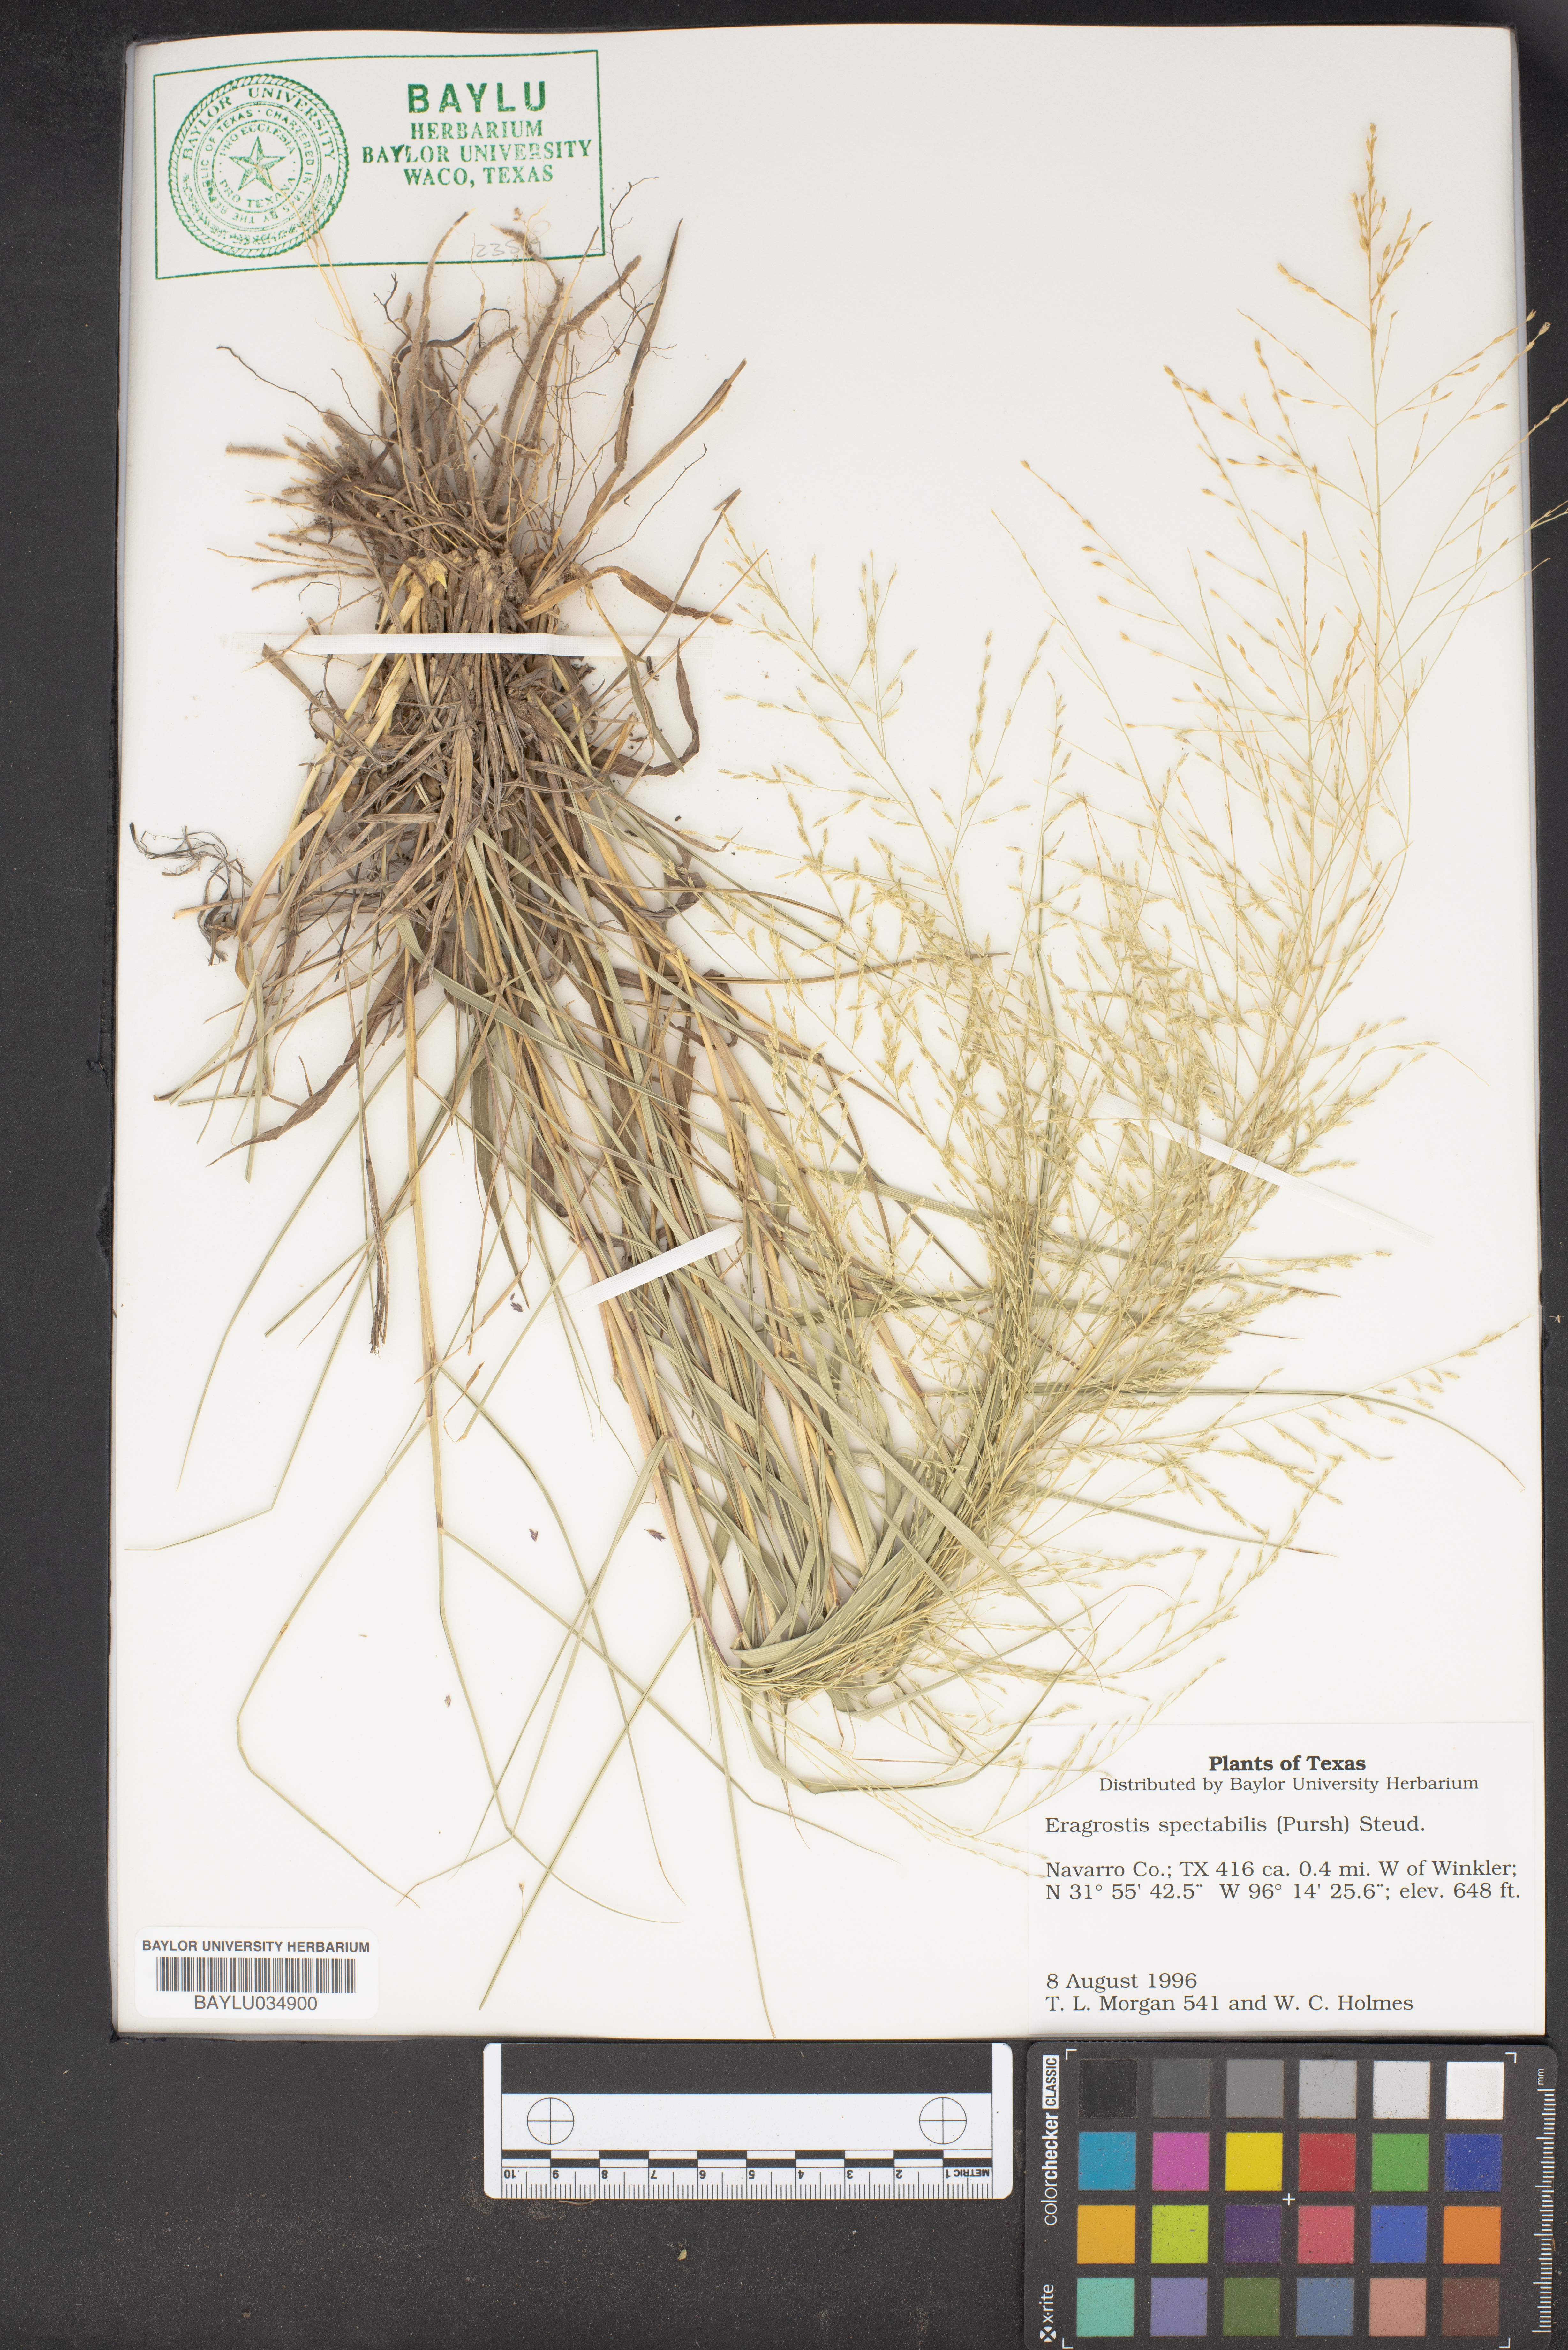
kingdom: Plantae
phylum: Tracheophyta
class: Liliopsida
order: Poales
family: Poaceae
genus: Eragrostis
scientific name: Eragrostis spectabilis
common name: Petticoat-climber
